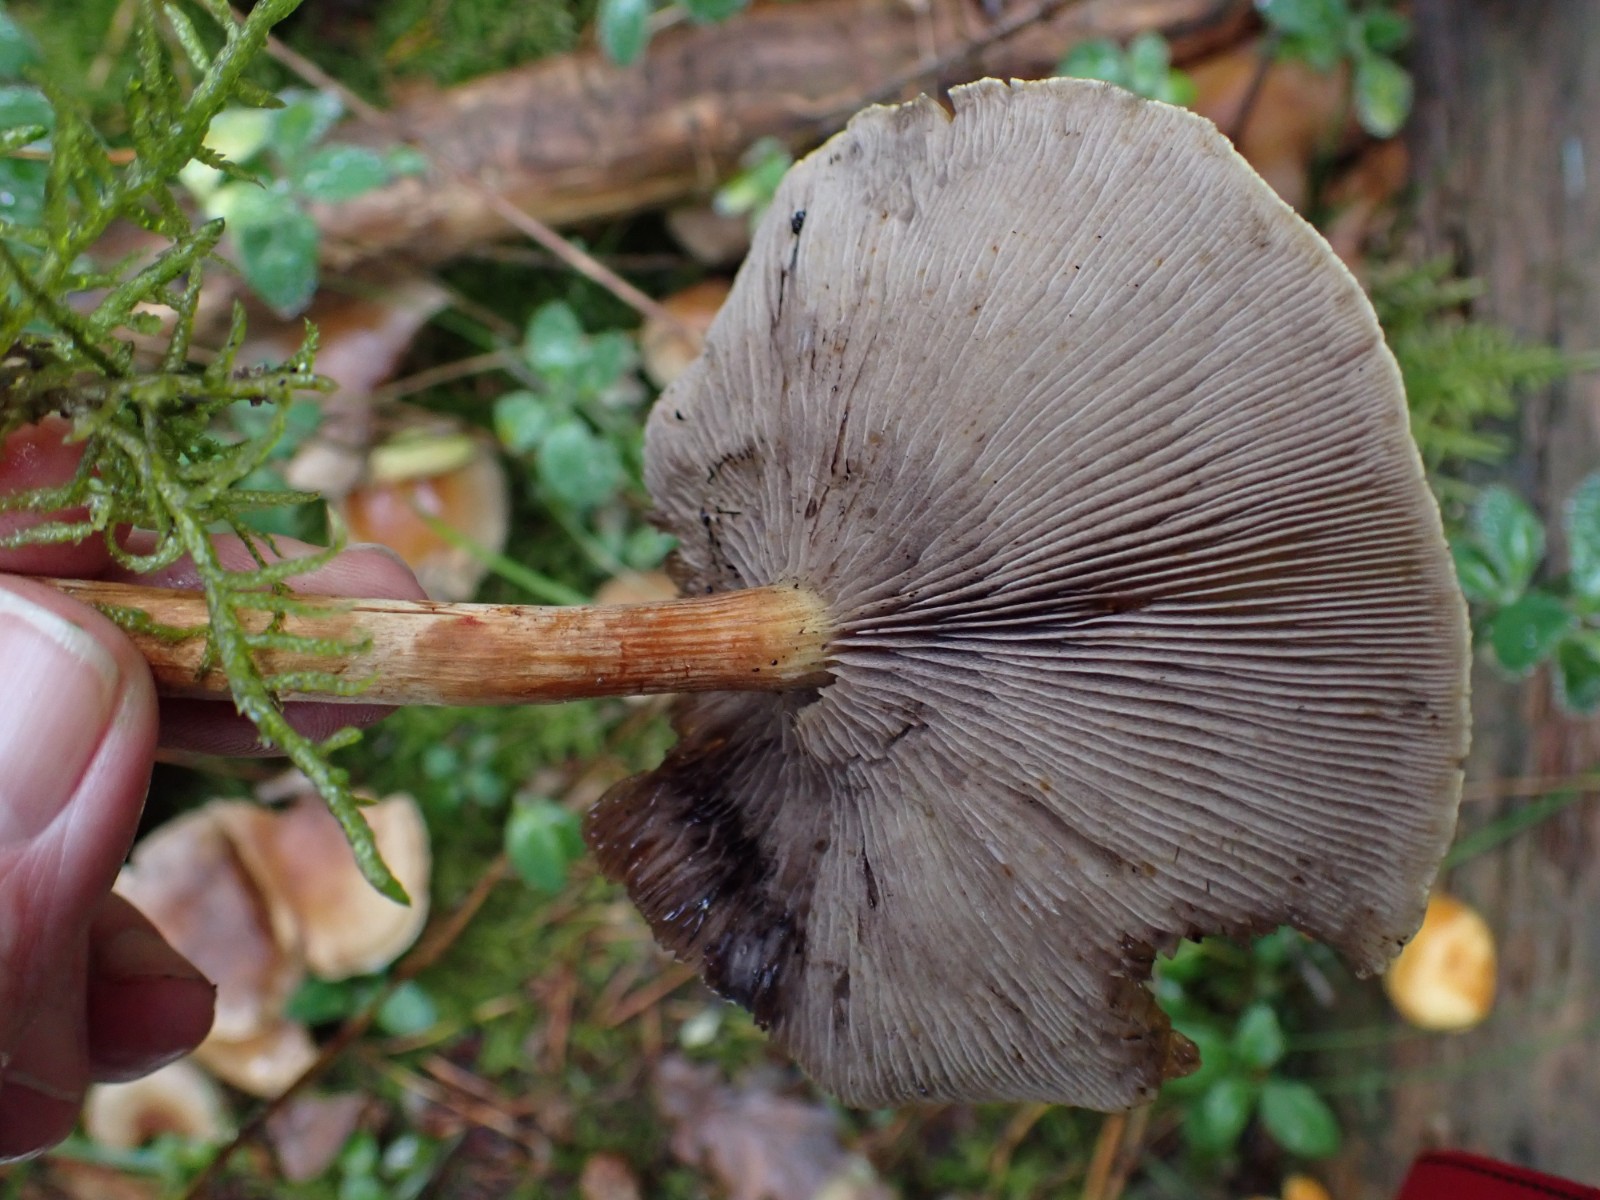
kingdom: Fungi
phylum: Basidiomycota
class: Agaricomycetes
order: Agaricales
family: Strophariaceae
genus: Hypholoma
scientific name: Hypholoma capnoides
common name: gran-svovlhat
